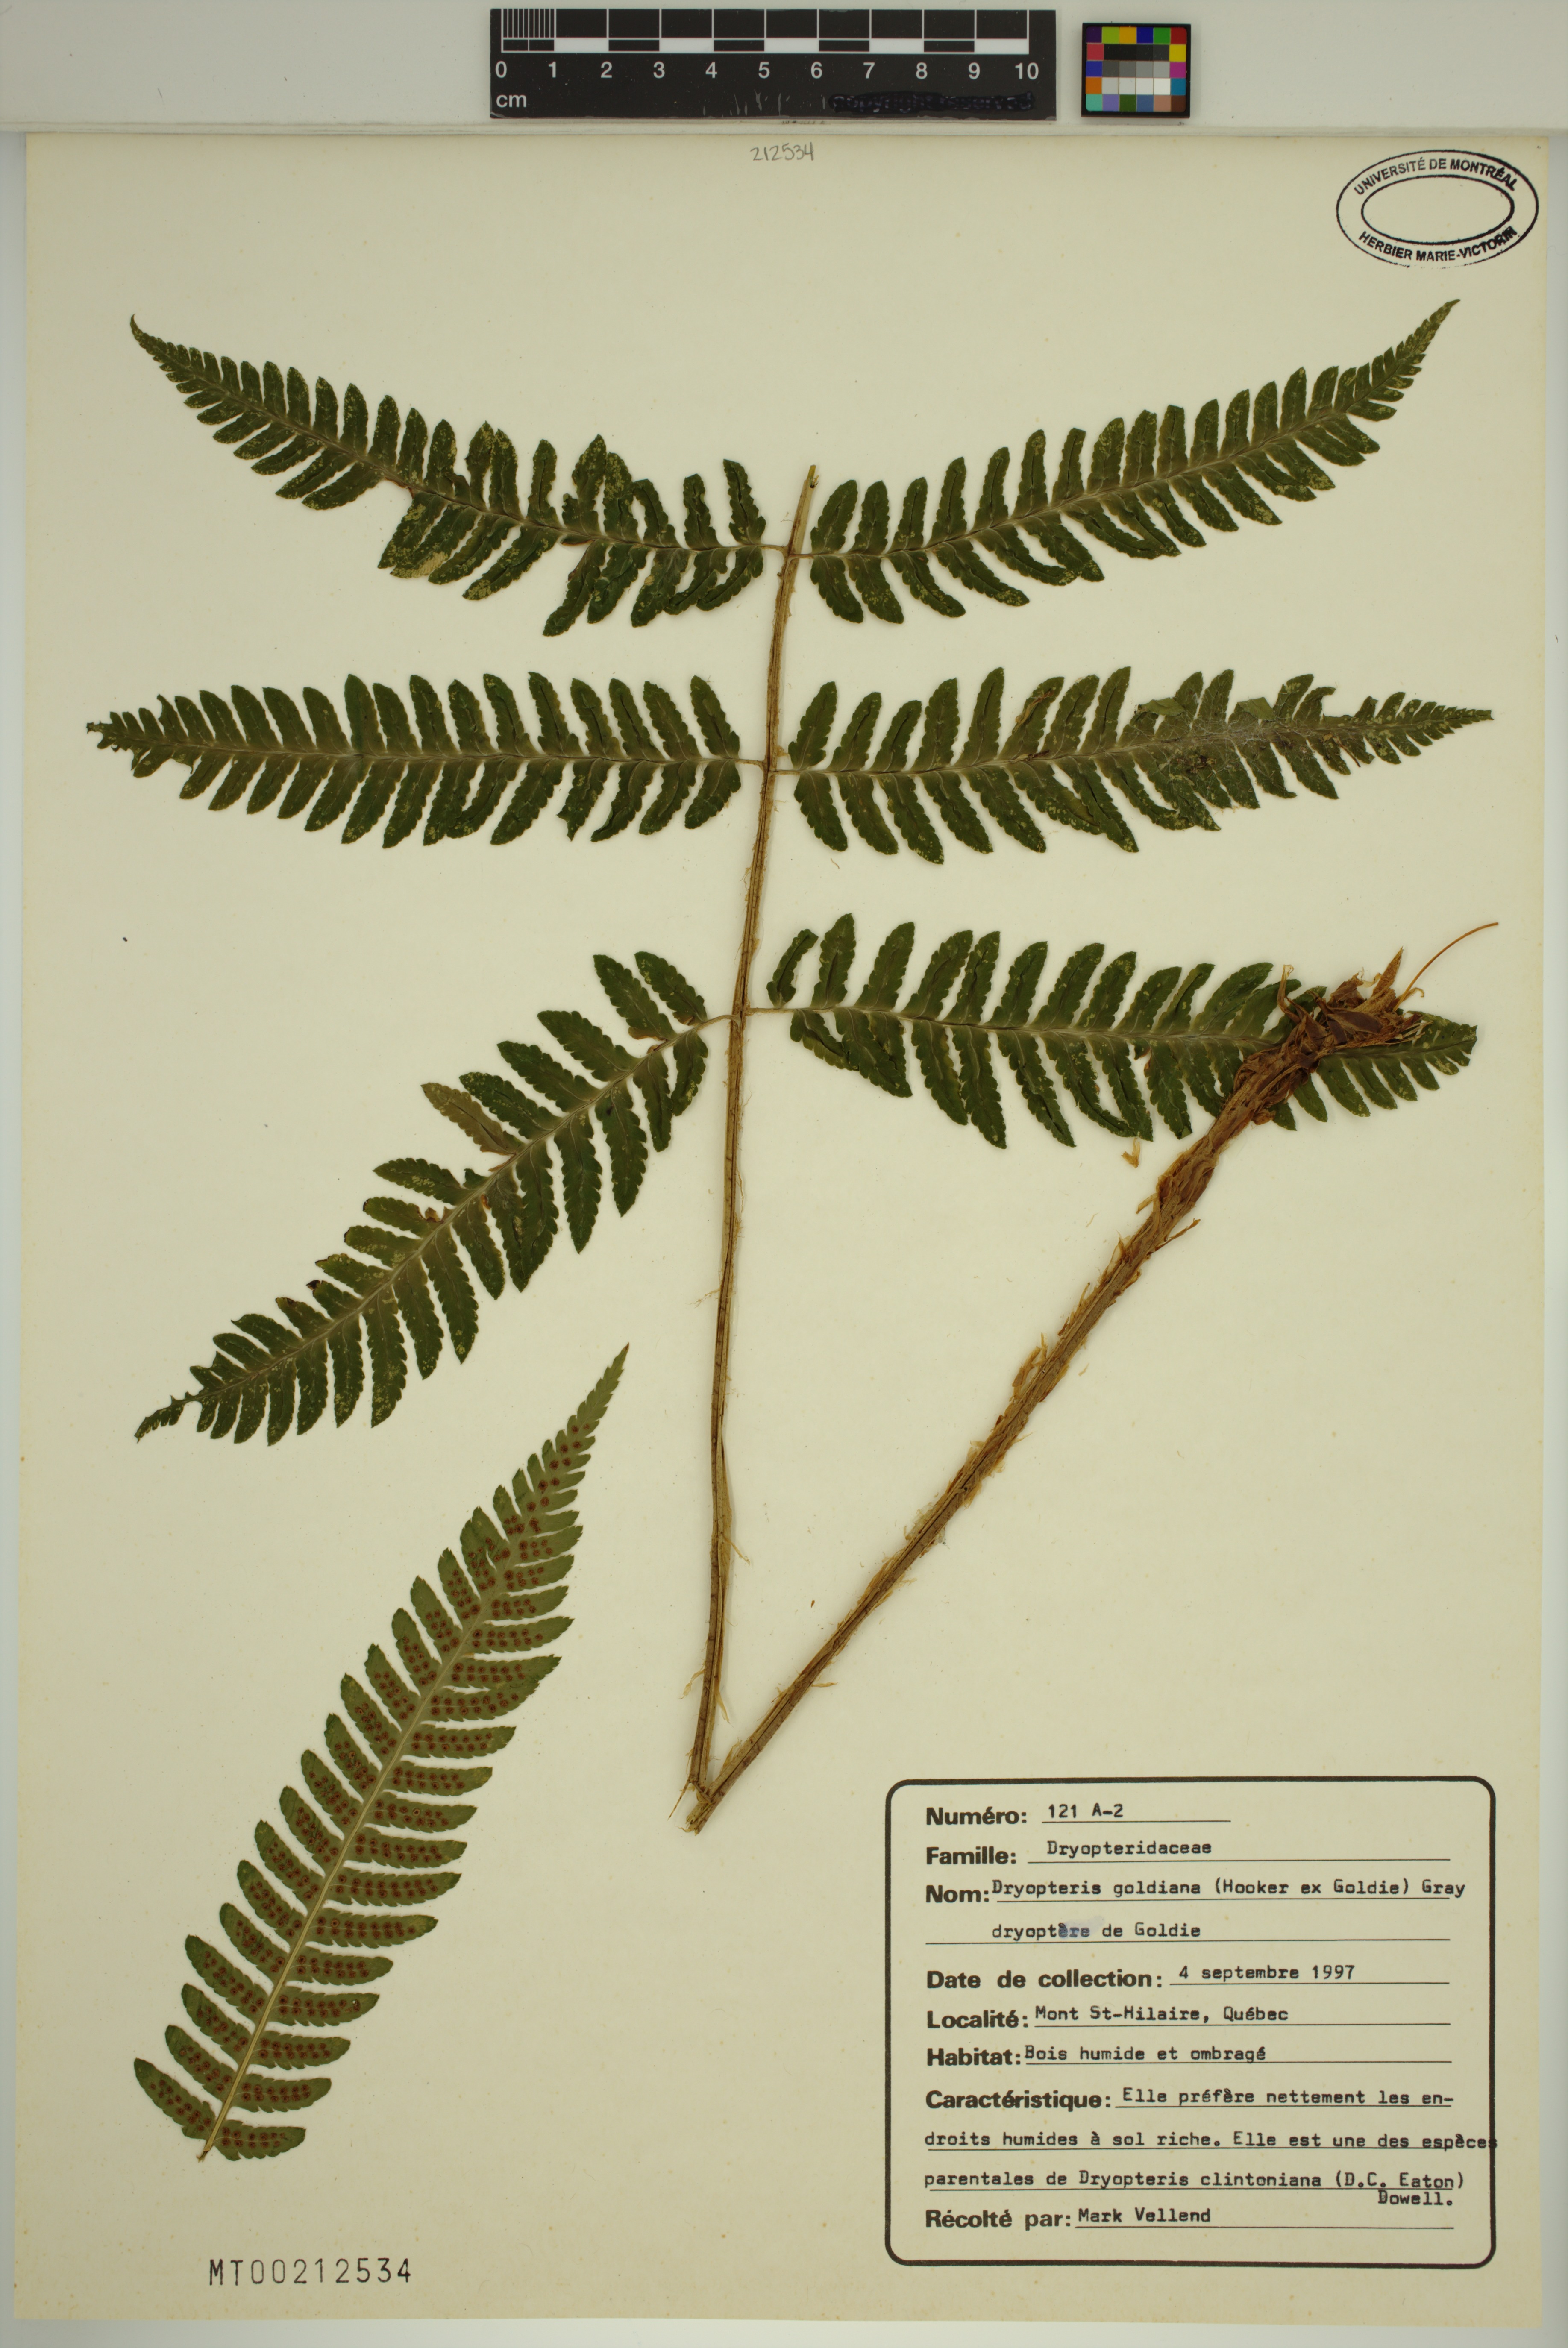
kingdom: Plantae
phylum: Tracheophyta
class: Polypodiopsida
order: Polypodiales
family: Dryopteridaceae
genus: Dryopteris
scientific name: Dryopteris goldieana
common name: Goldie's fern
